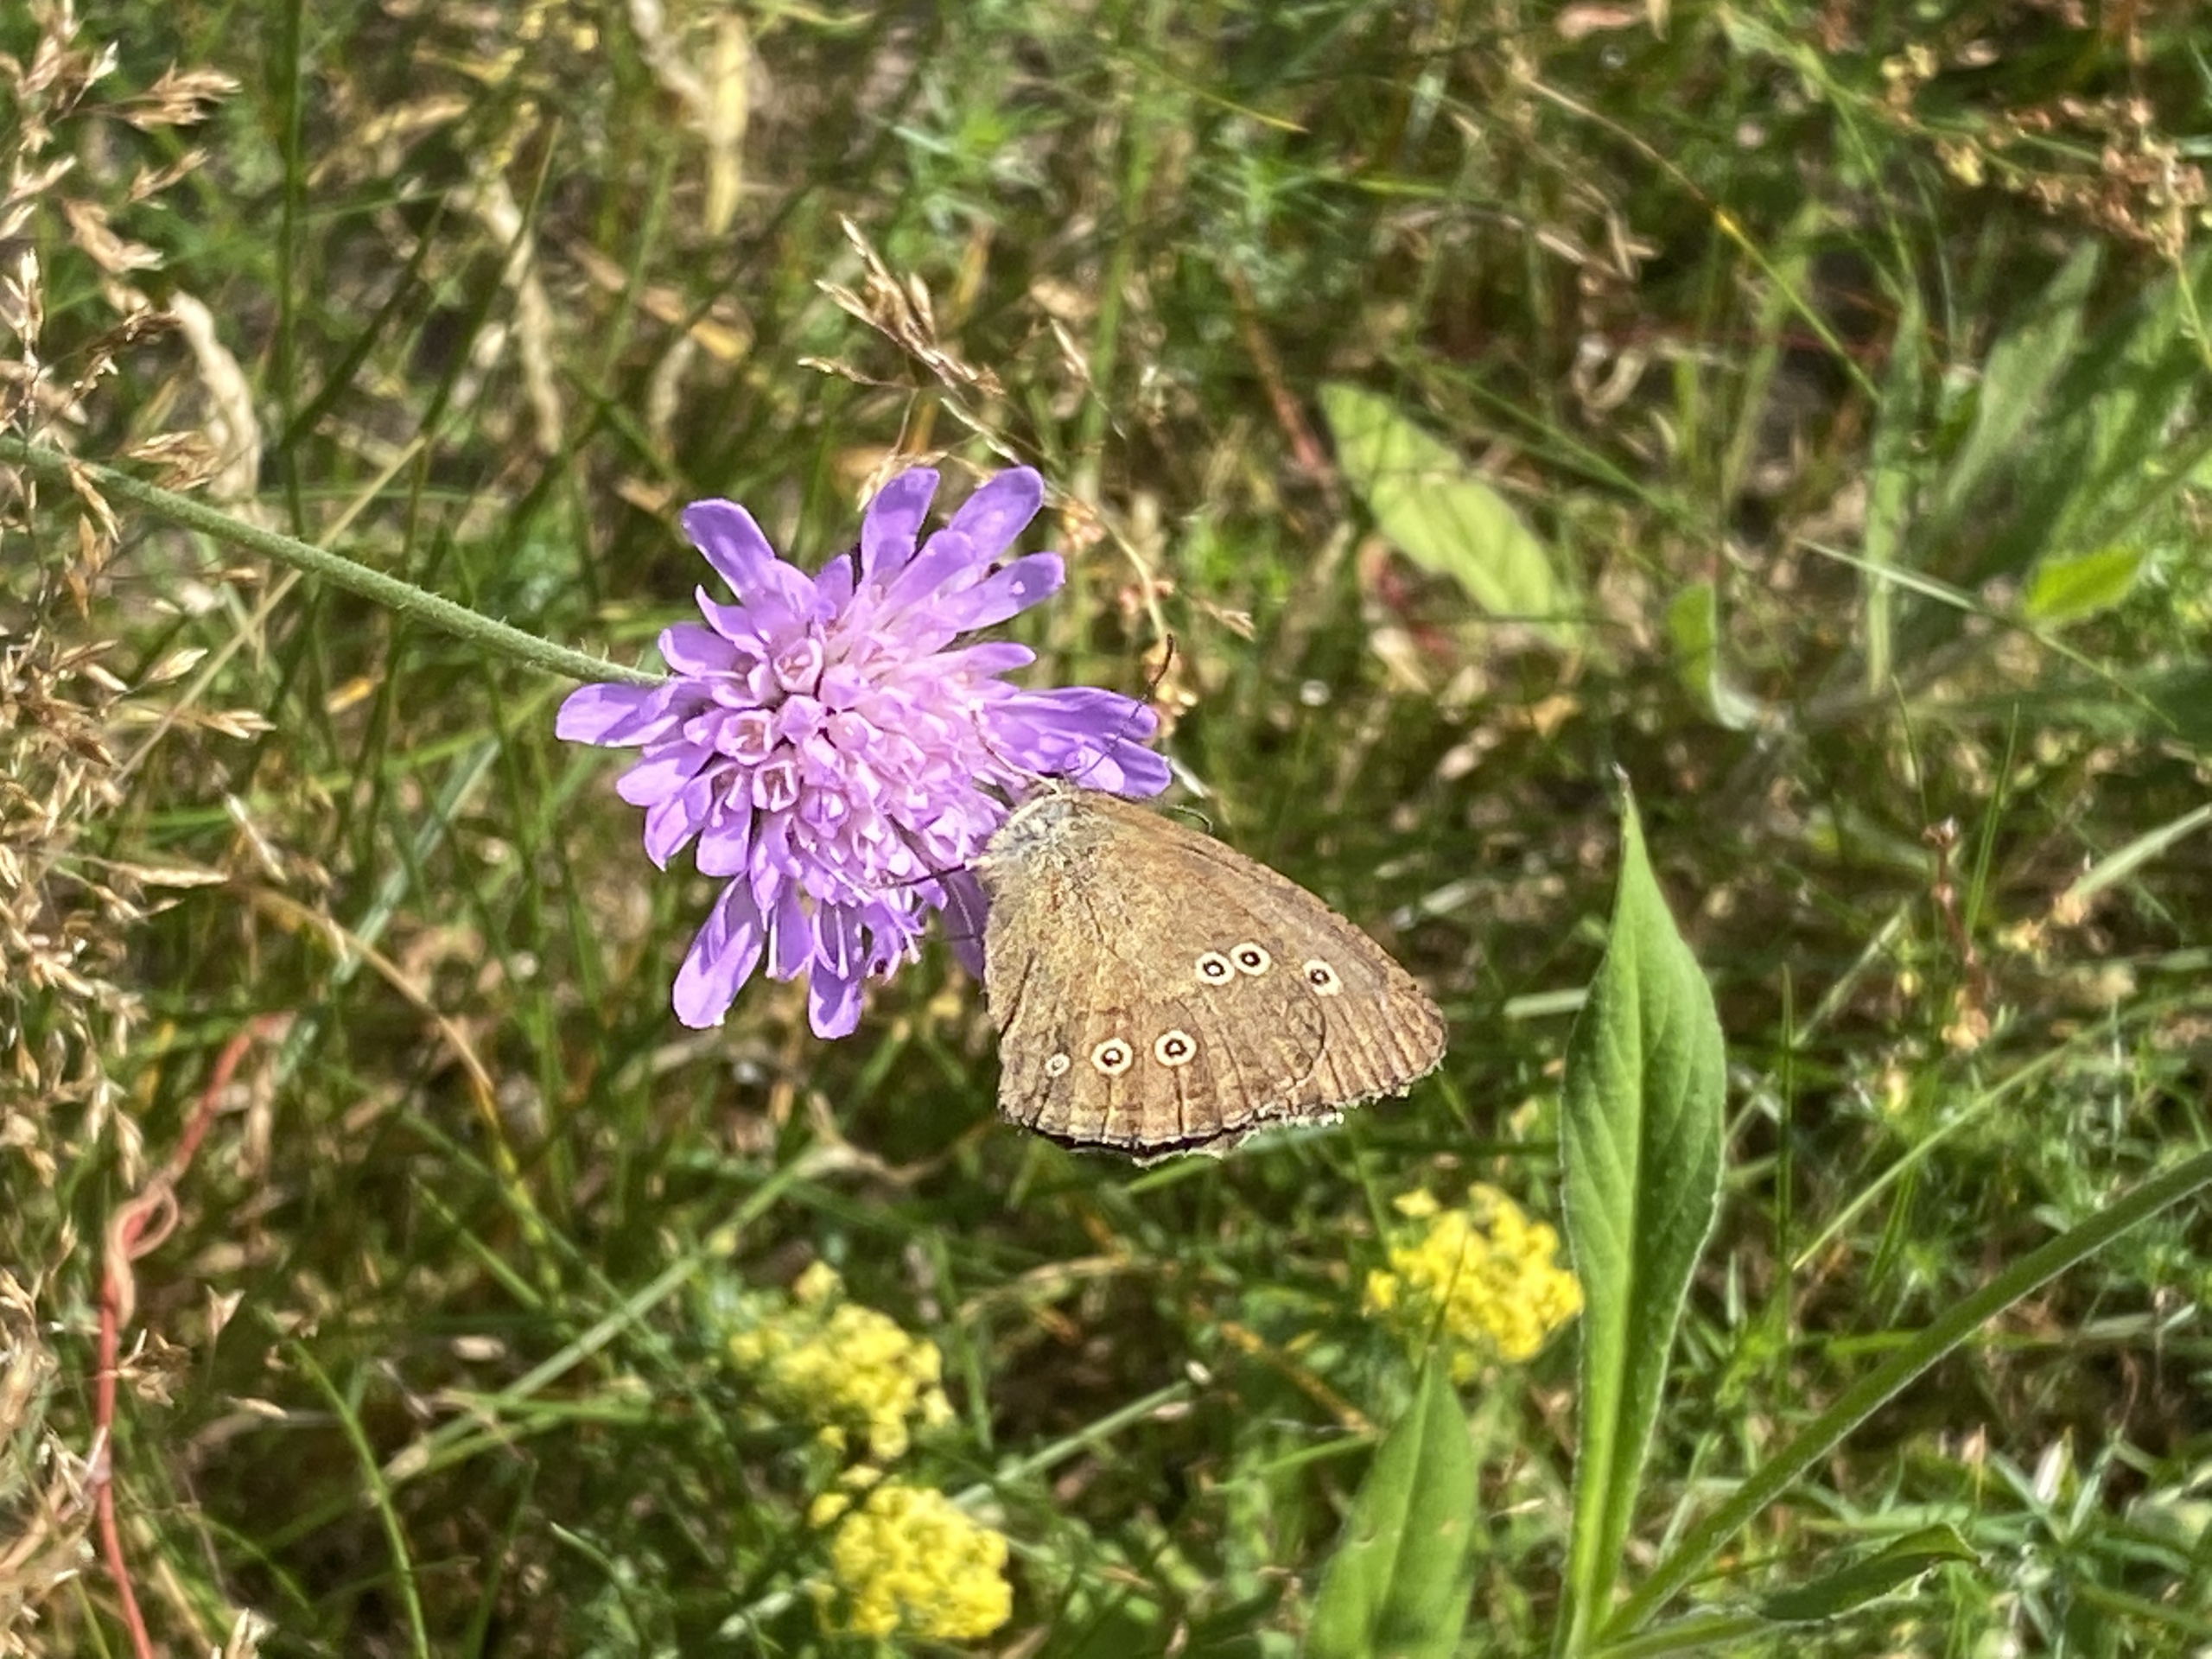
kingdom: Animalia
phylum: Arthropoda
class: Insecta
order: Lepidoptera
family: Nymphalidae
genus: Aphantopus
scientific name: Aphantopus hyperantus
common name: Engrandøje
